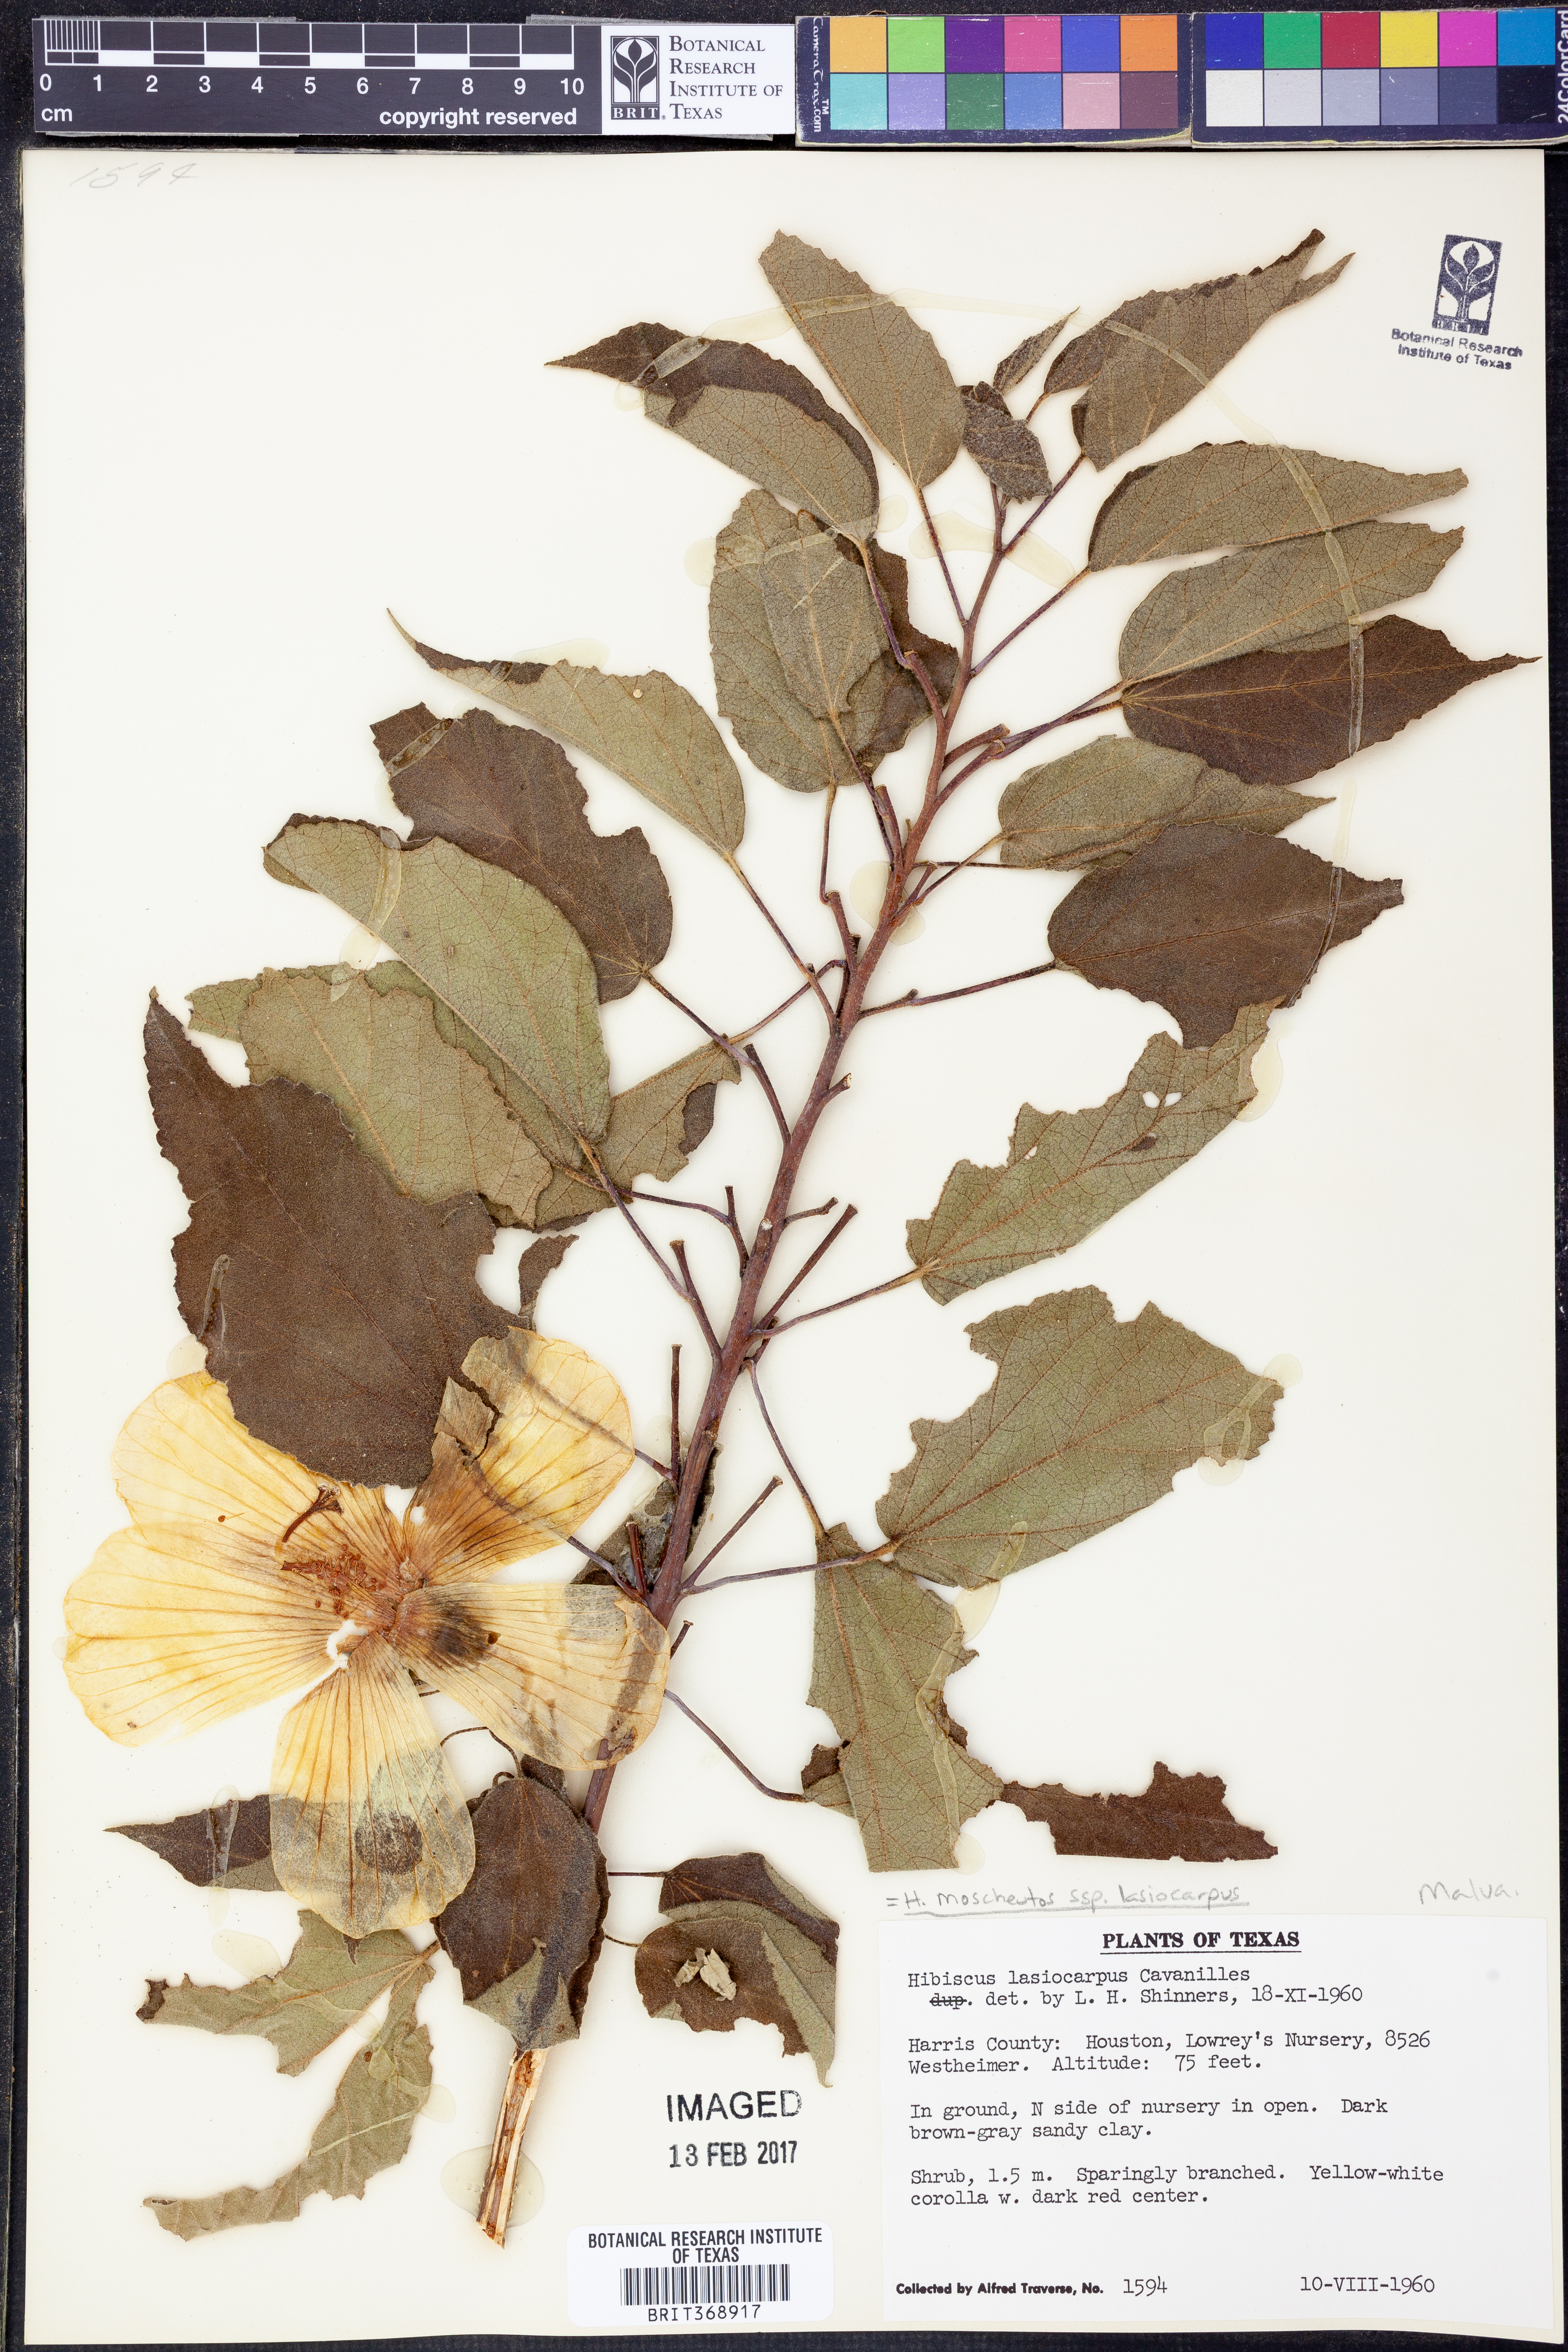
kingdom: Plantae
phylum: Tracheophyta
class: Magnoliopsida
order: Malvales
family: Malvaceae
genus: Hibiscus
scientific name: Hibiscus moscheutos
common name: Common rose-mallow
